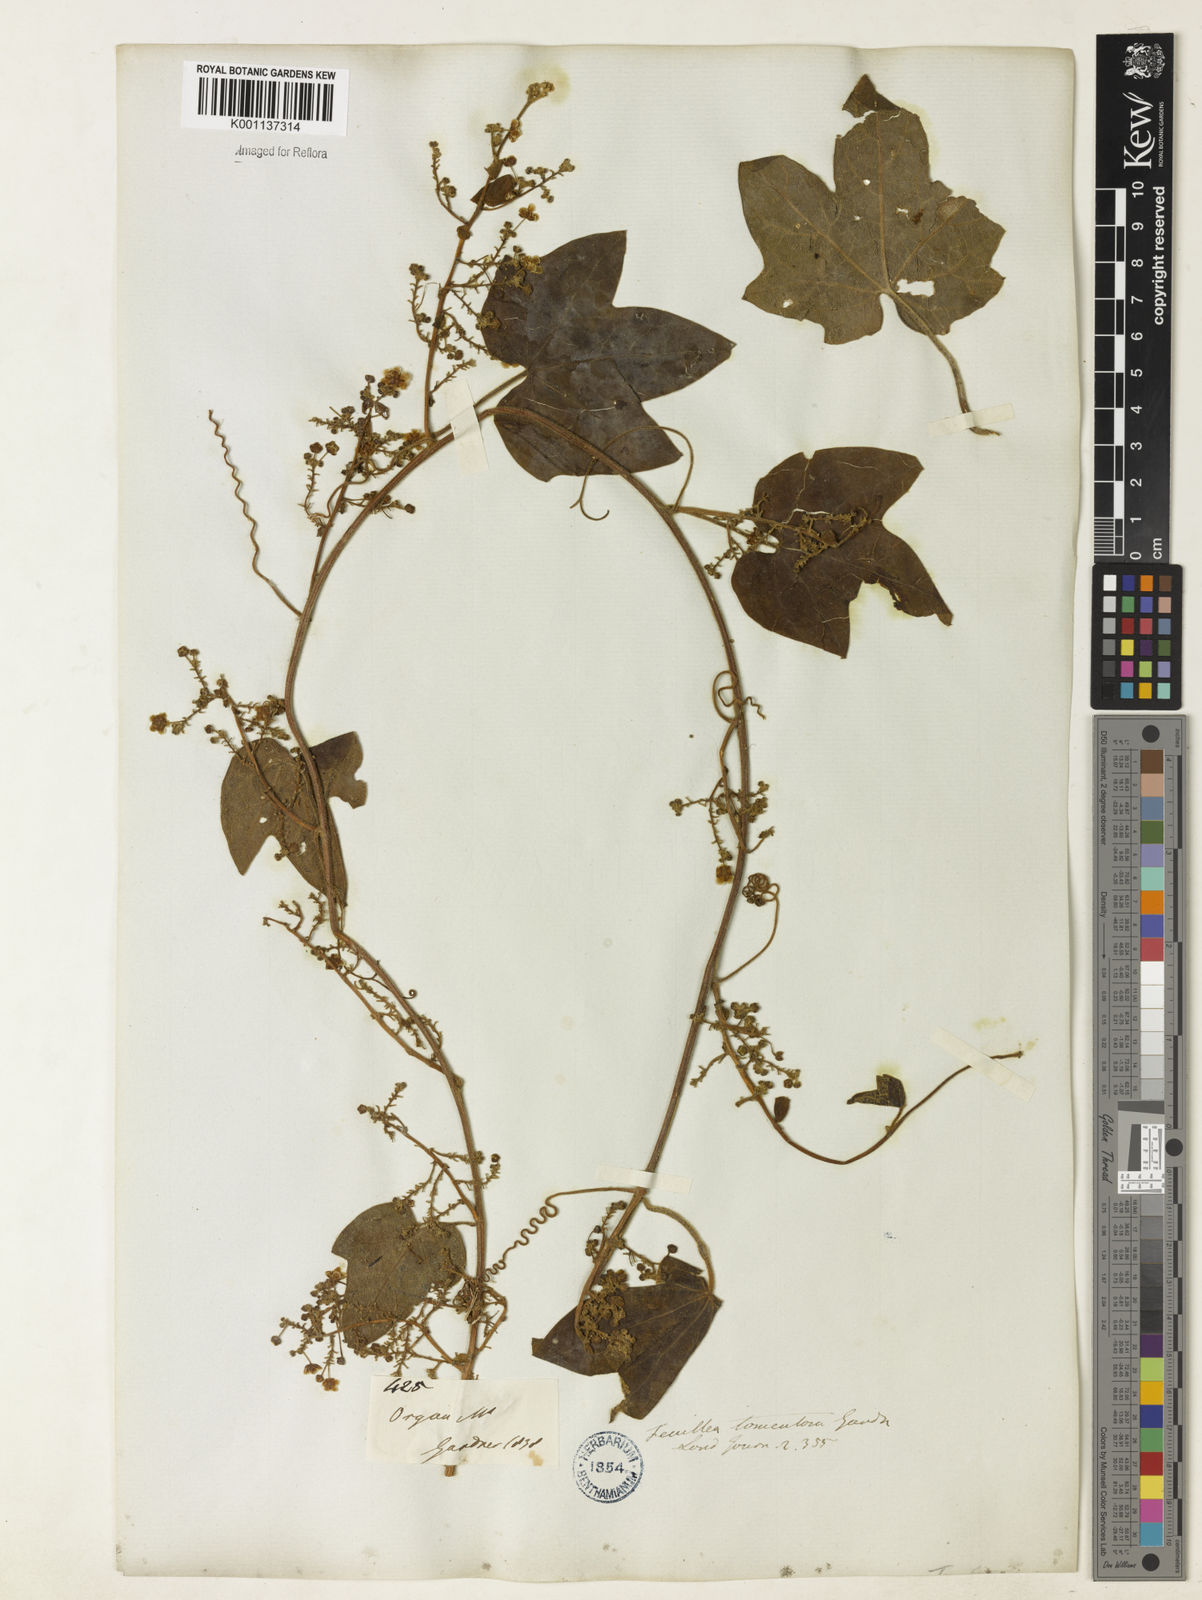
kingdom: Plantae
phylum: Tracheophyta
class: Magnoliopsida
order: Cucurbitales
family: Cucurbitaceae
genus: Fevillea
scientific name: Fevillea trilobata
